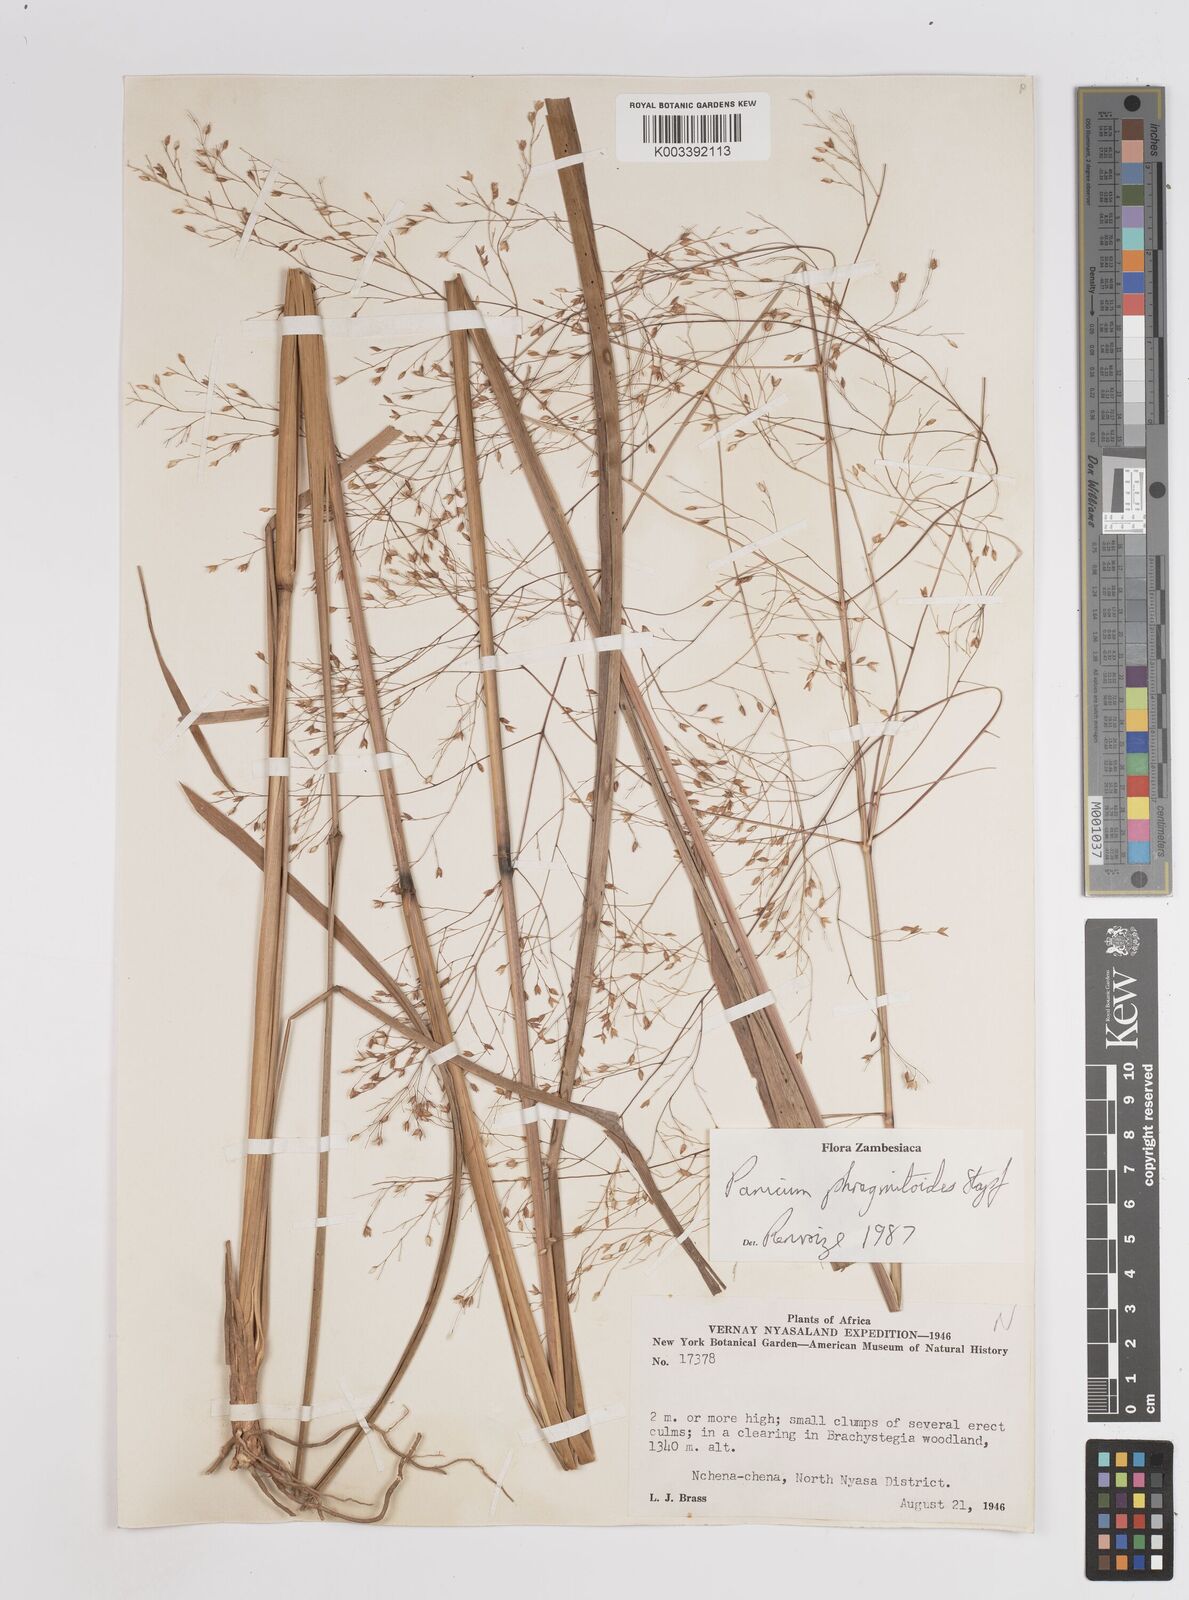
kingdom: Plantae
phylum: Tracheophyta
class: Liliopsida
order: Poales
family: Poaceae
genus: Panicum
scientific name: Panicum phragmitoides
